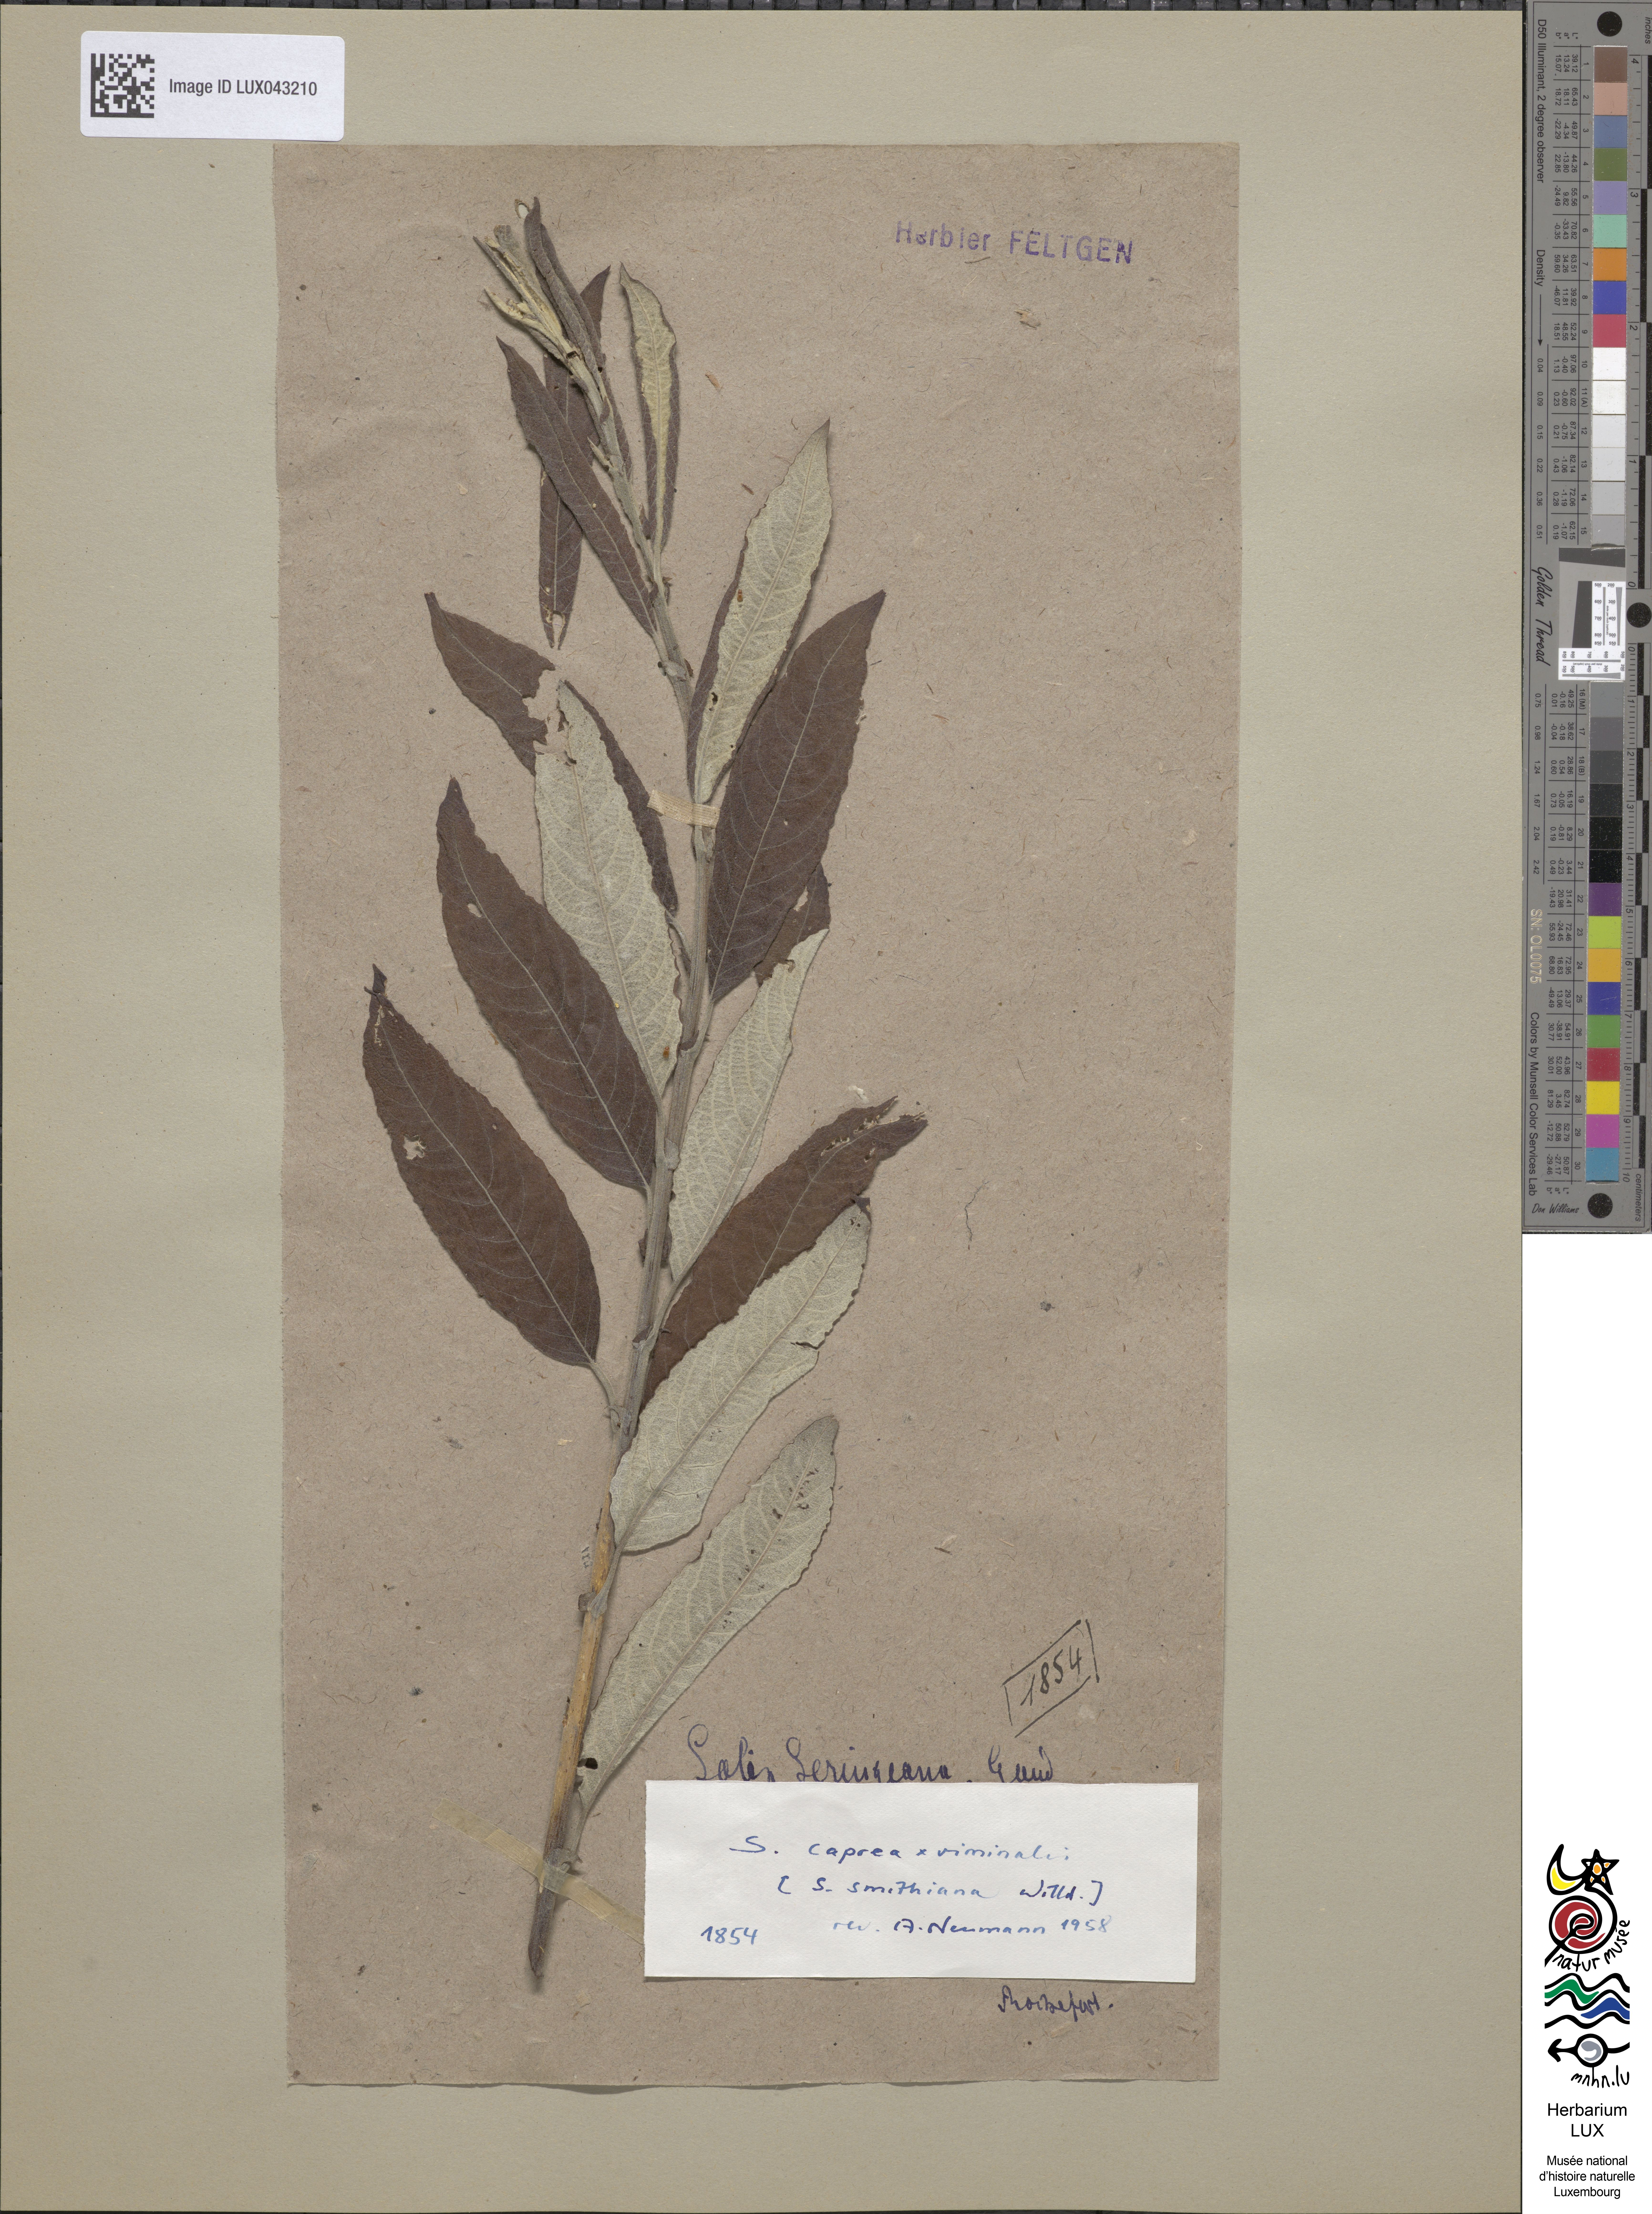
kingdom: Plantae
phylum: Tracheophyta
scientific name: Tracheophyta
